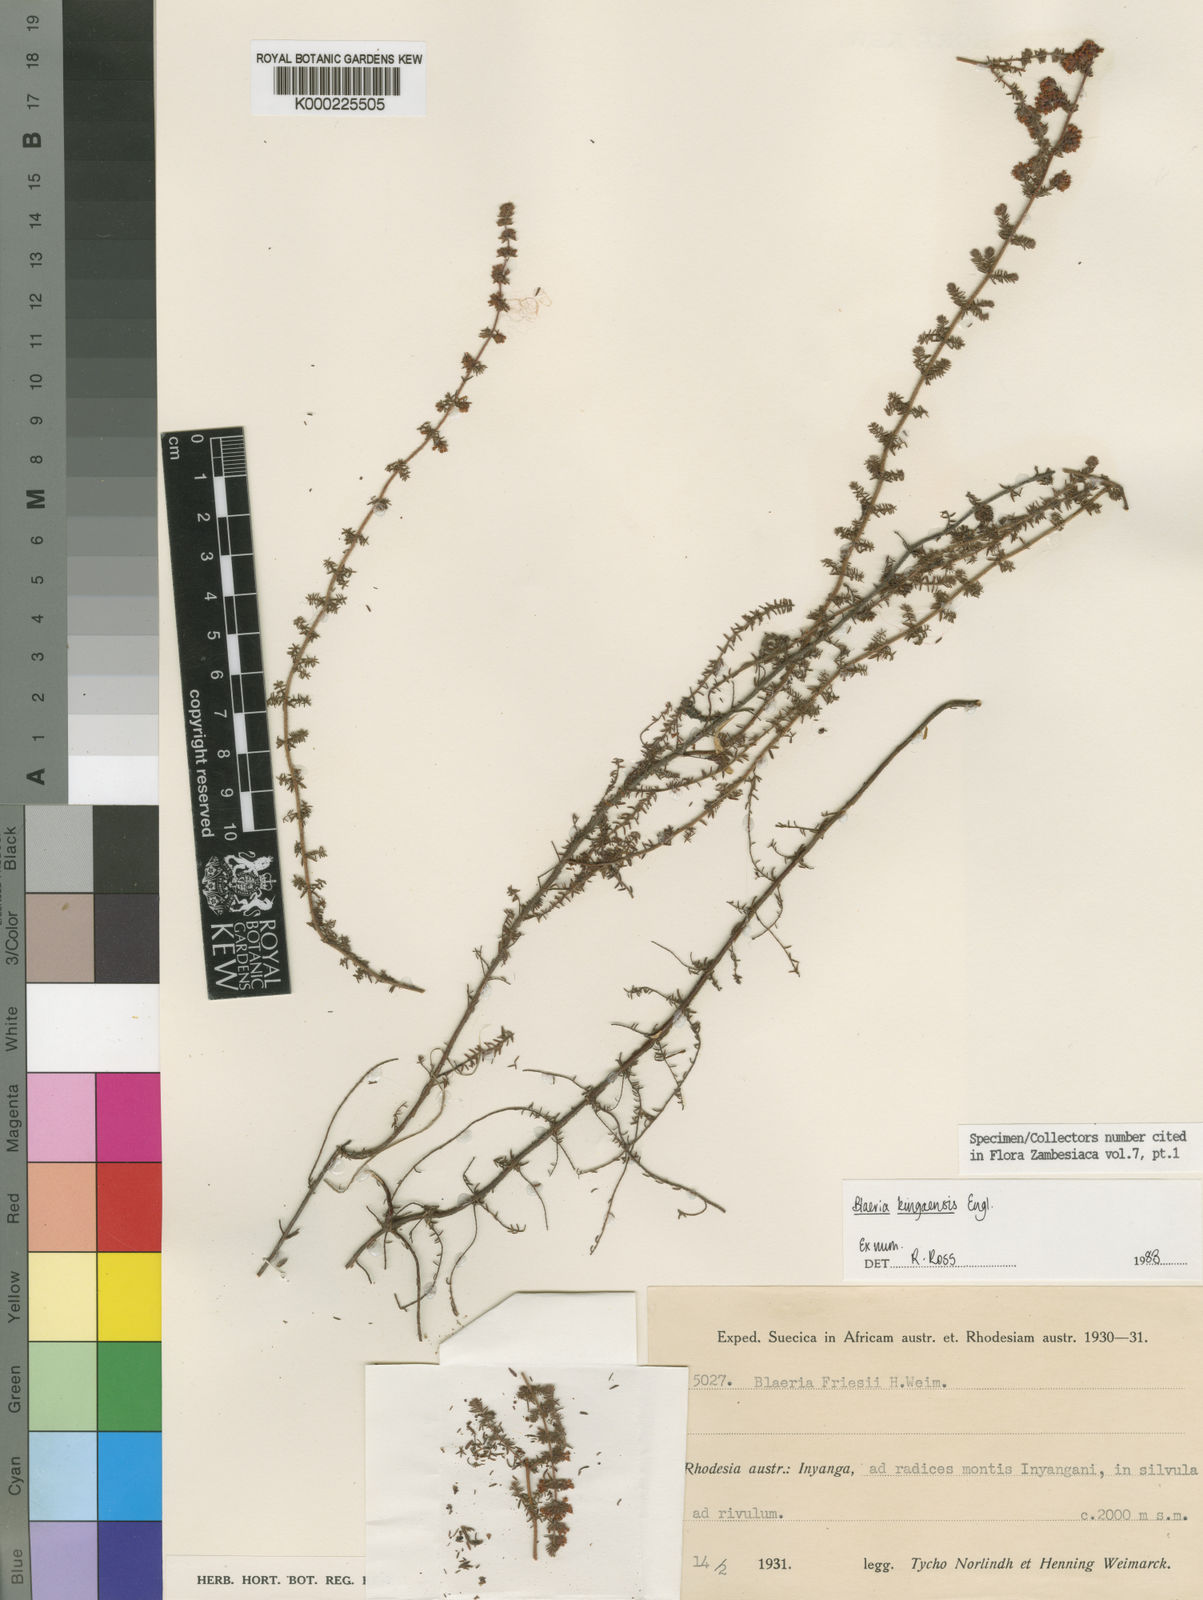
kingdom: Plantae
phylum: Tracheophyta
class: Magnoliopsida
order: Ericales
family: Ericaceae
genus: Erica
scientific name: Erica silvatica
